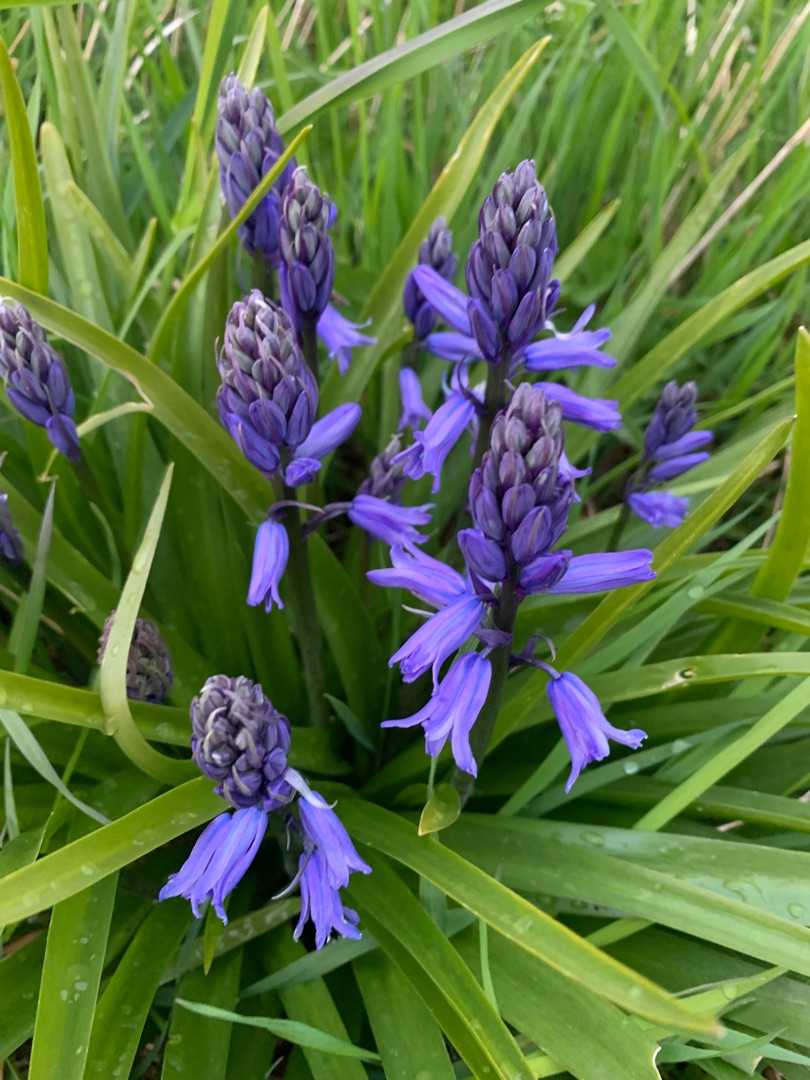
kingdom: Plantae
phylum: Tracheophyta
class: Liliopsida
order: Asparagales
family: Asparagaceae
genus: Hyacinthoides
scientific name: Hyacinthoides massartiana
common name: Hybrid-klokkeskilla
